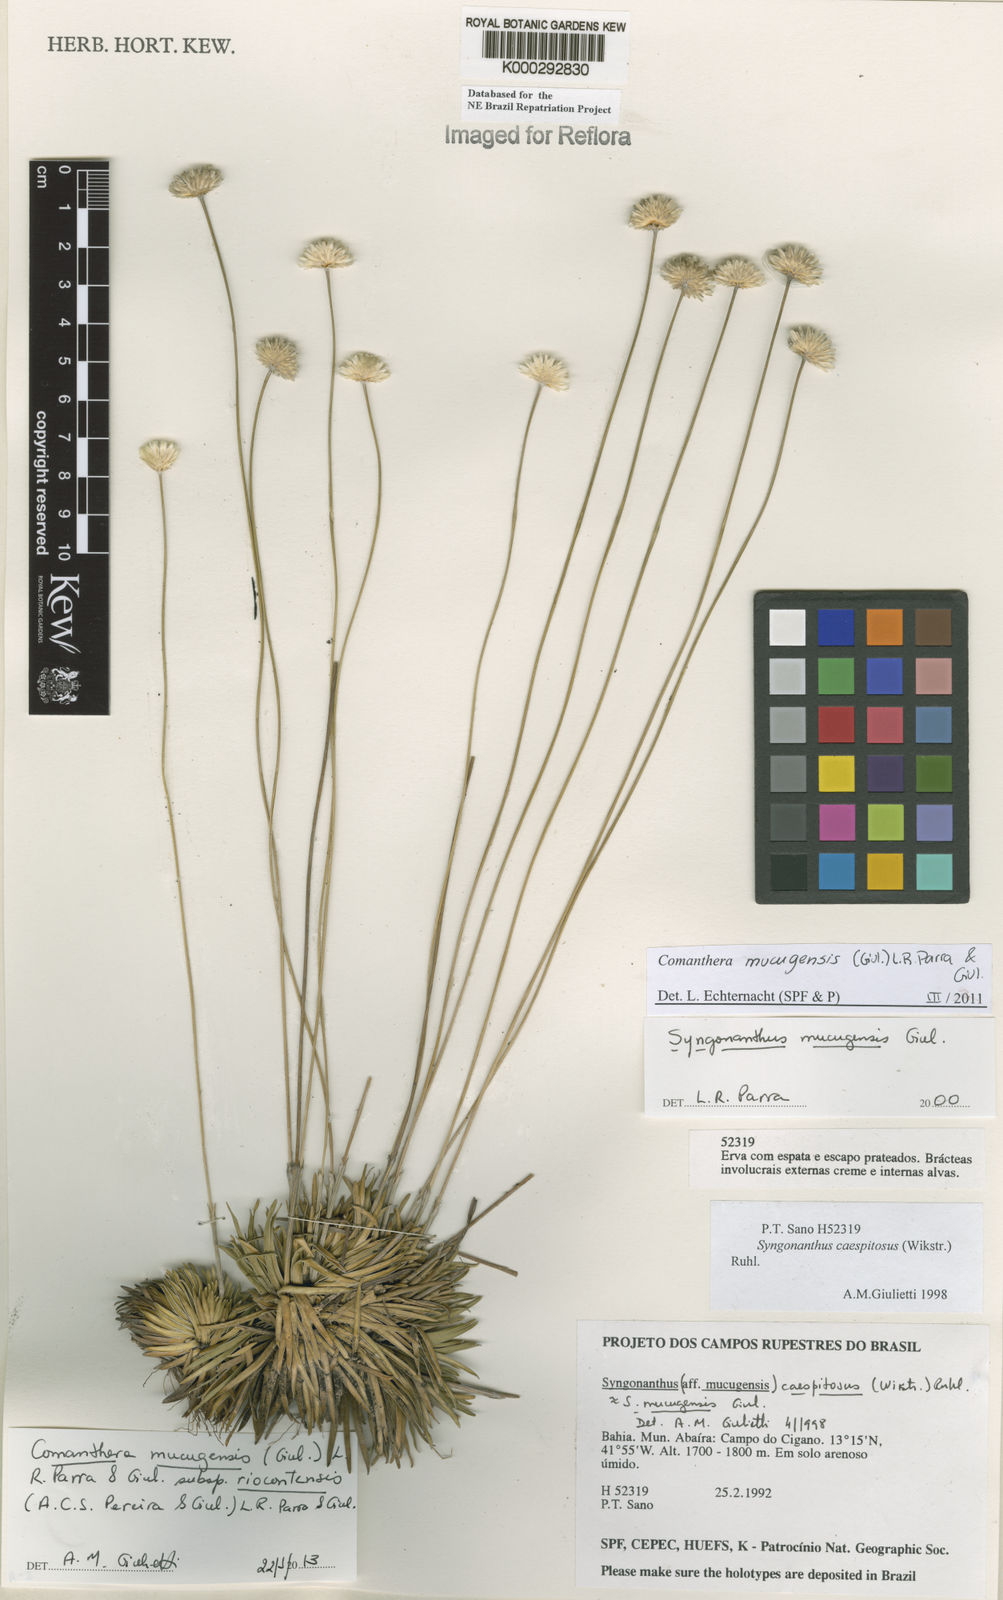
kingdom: Plantae
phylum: Tracheophyta
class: Liliopsida
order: Poales
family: Eriocaulaceae
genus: Comanthera
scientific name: Comanthera mucugensis
